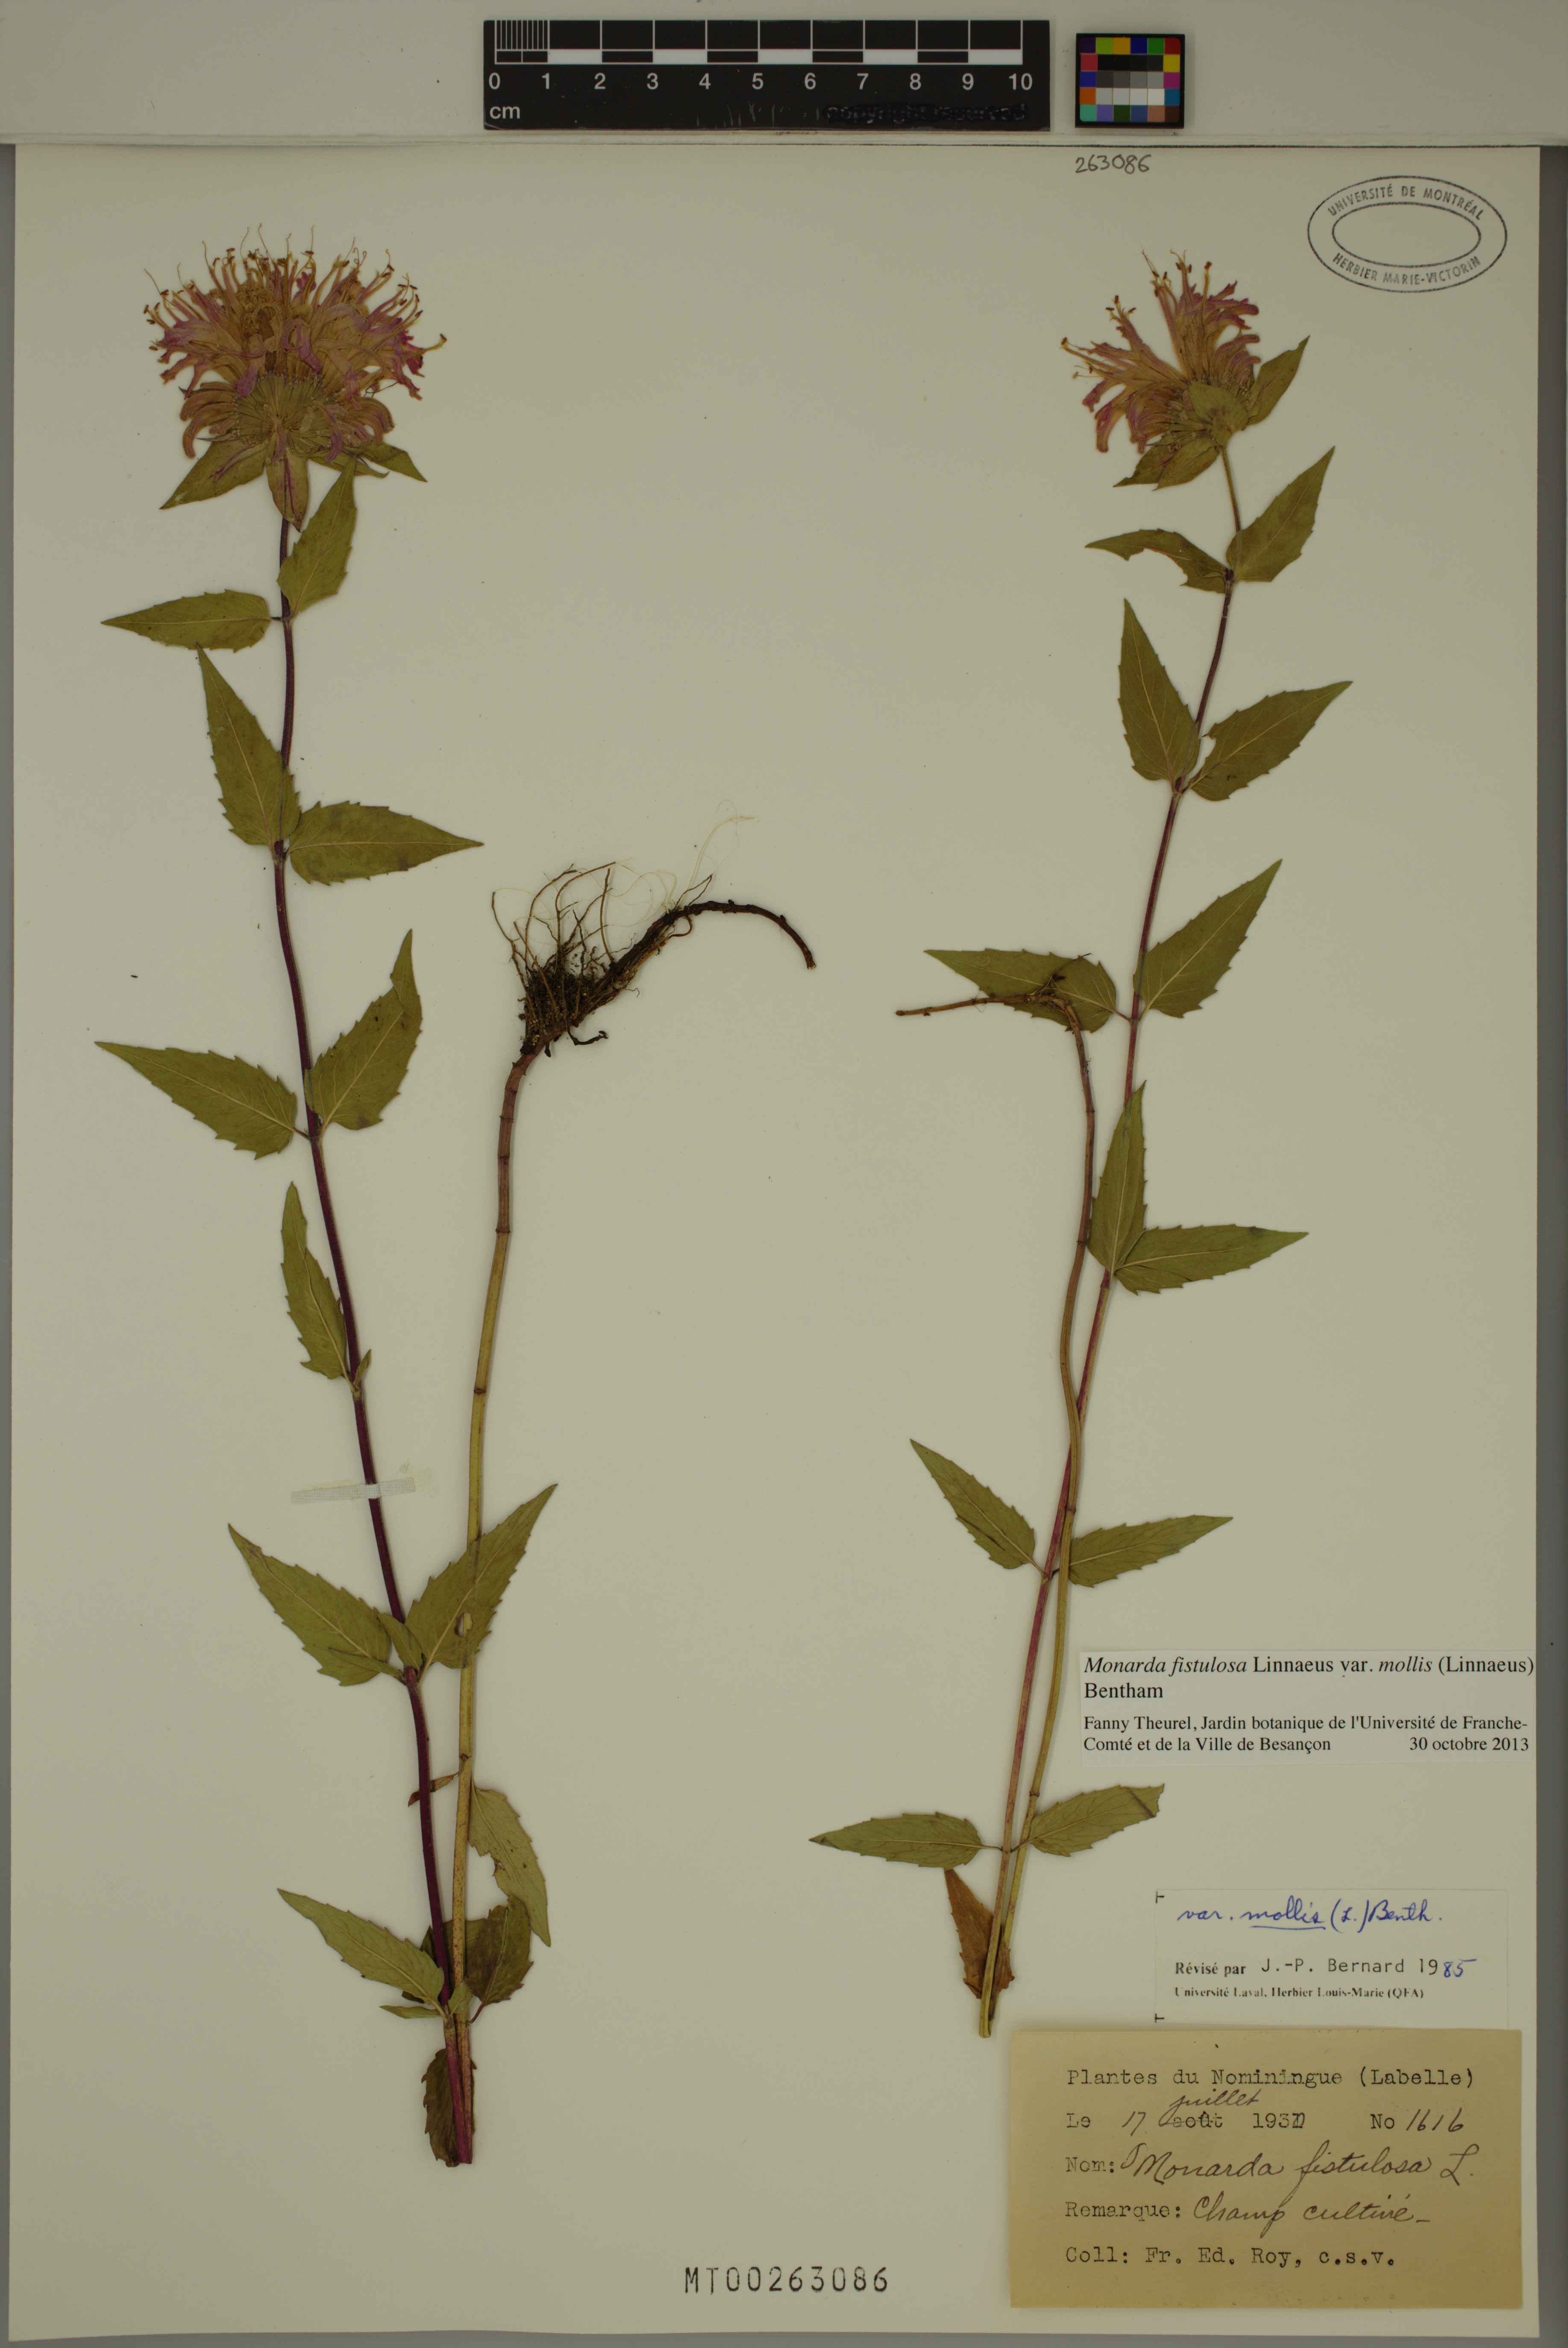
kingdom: Plantae
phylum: Tracheophyta
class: Magnoliopsida
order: Lamiales
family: Lamiaceae
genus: Monarda
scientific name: Monarda fistulosa
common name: Purple beebalm
